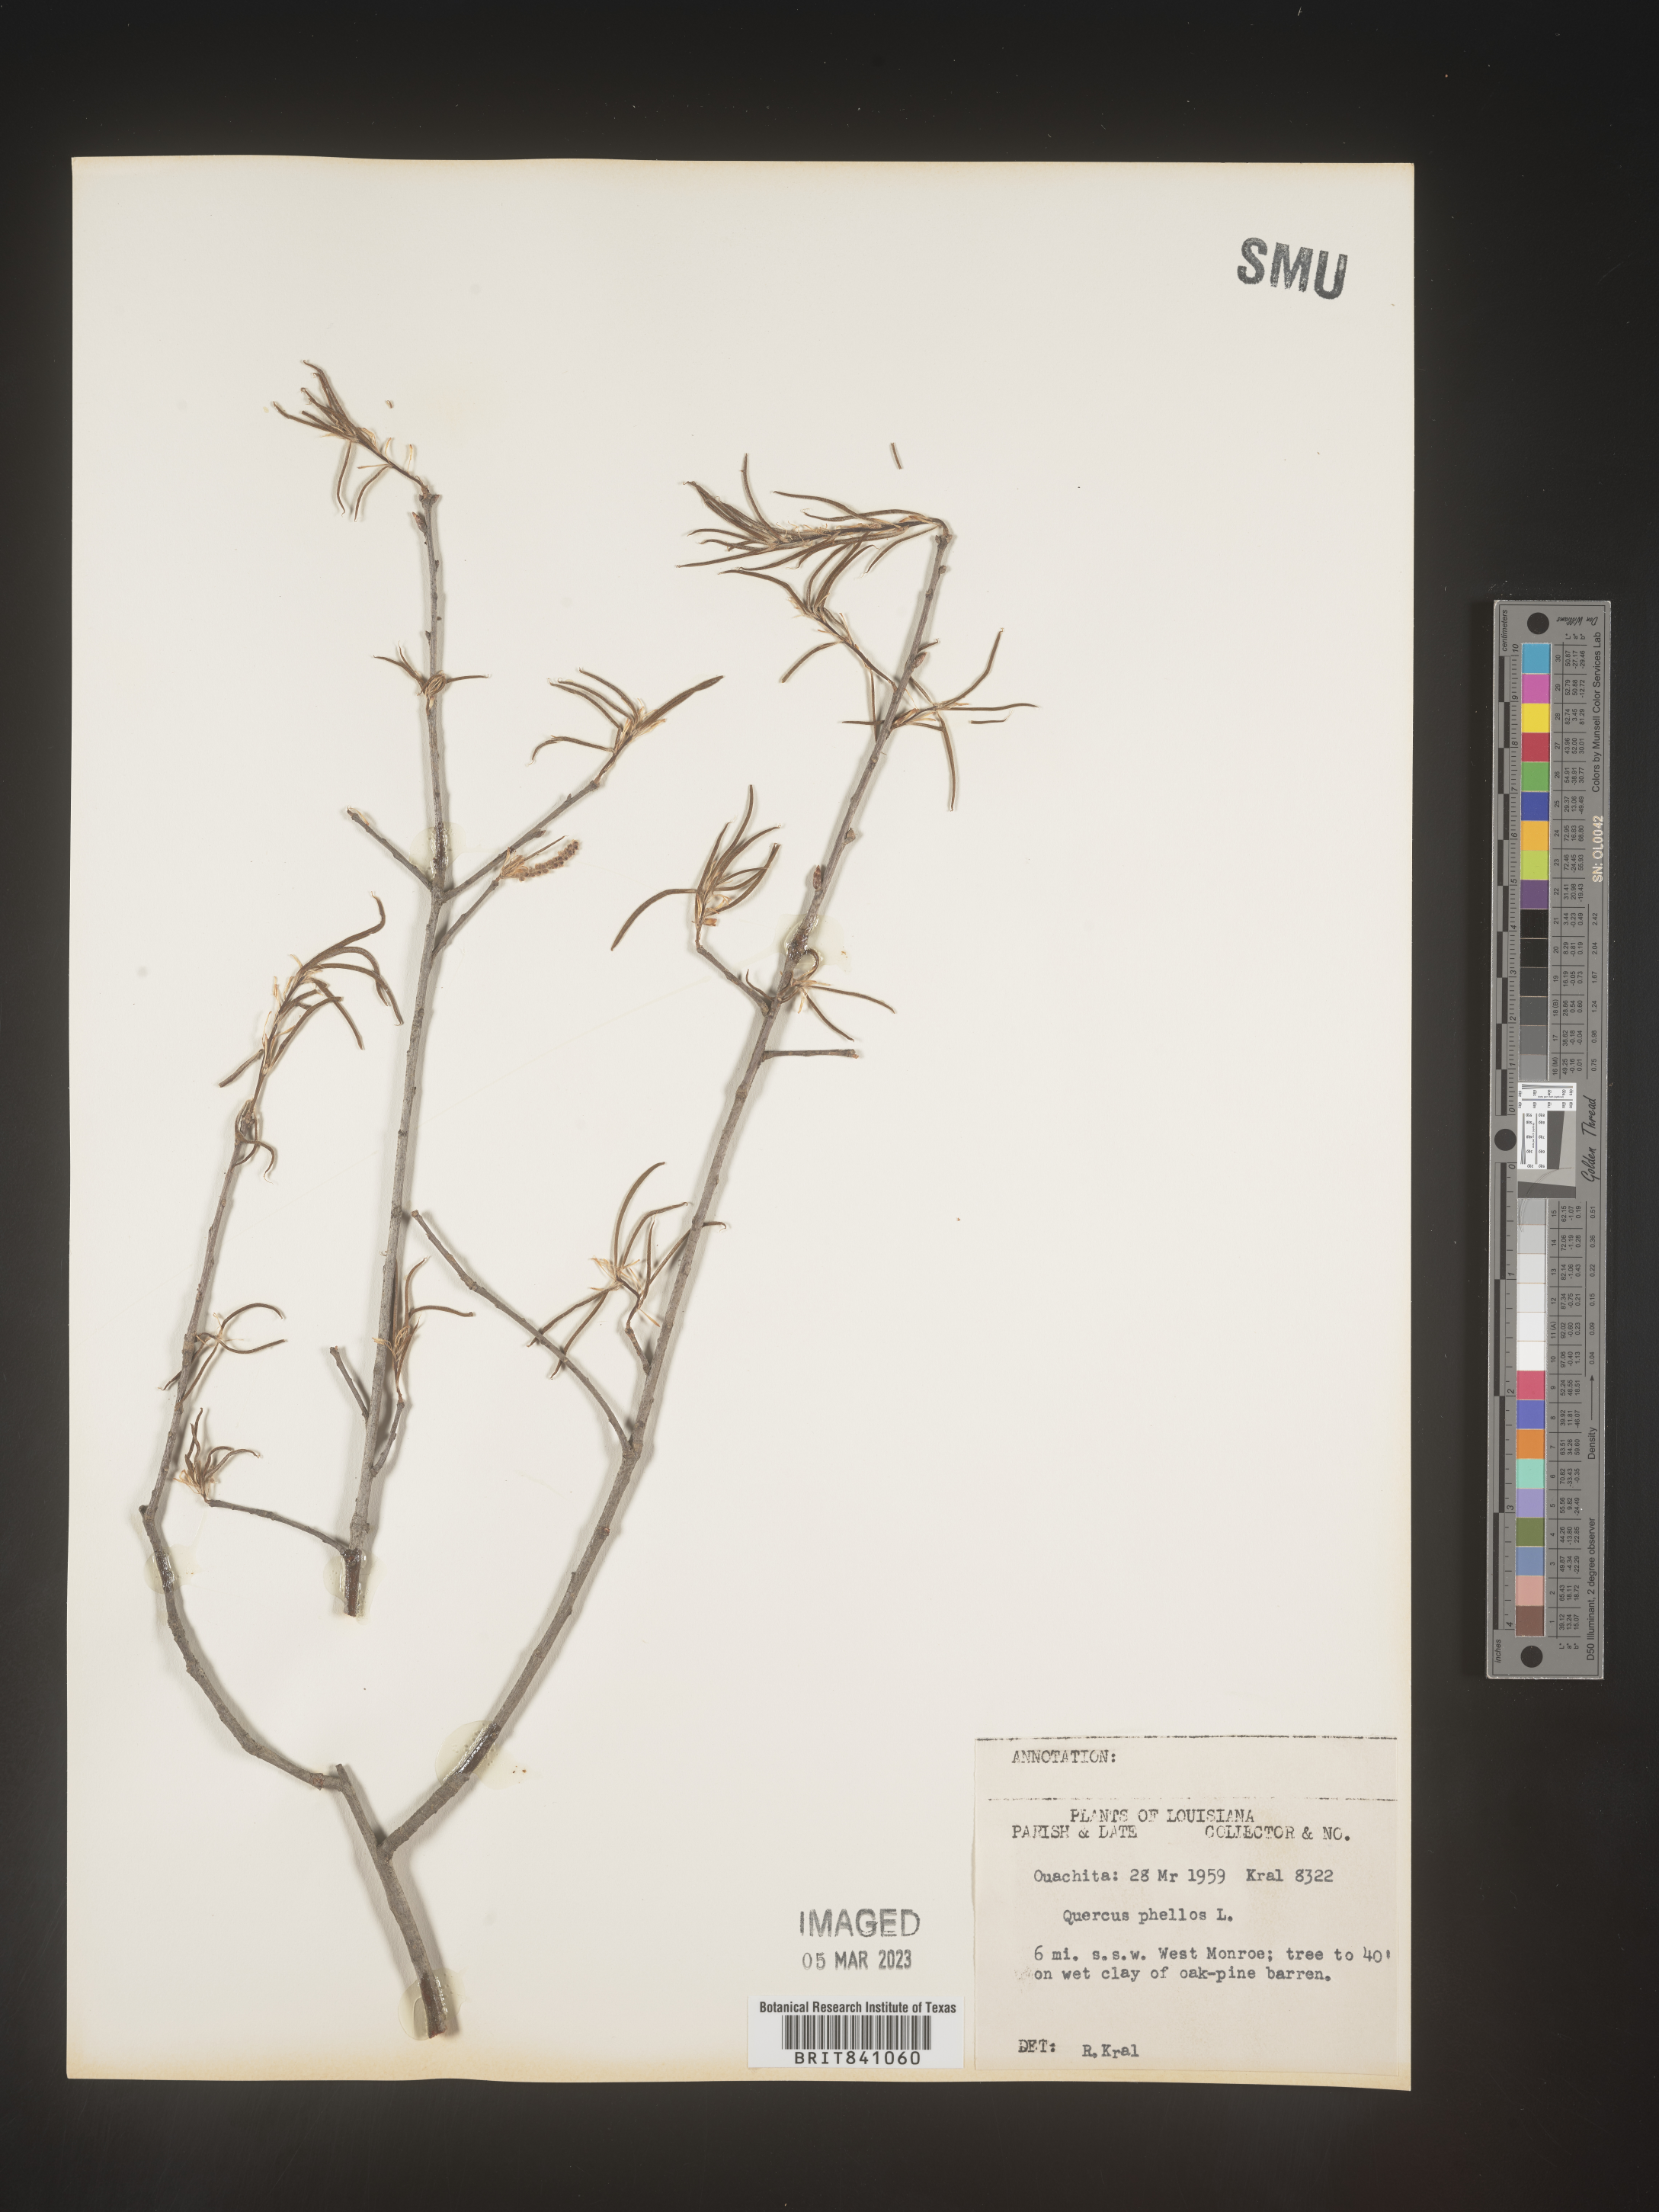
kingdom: Plantae
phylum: Tracheophyta
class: Magnoliopsida
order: Fagales
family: Fagaceae
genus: Quercus
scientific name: Quercus phellos
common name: Willow oak
